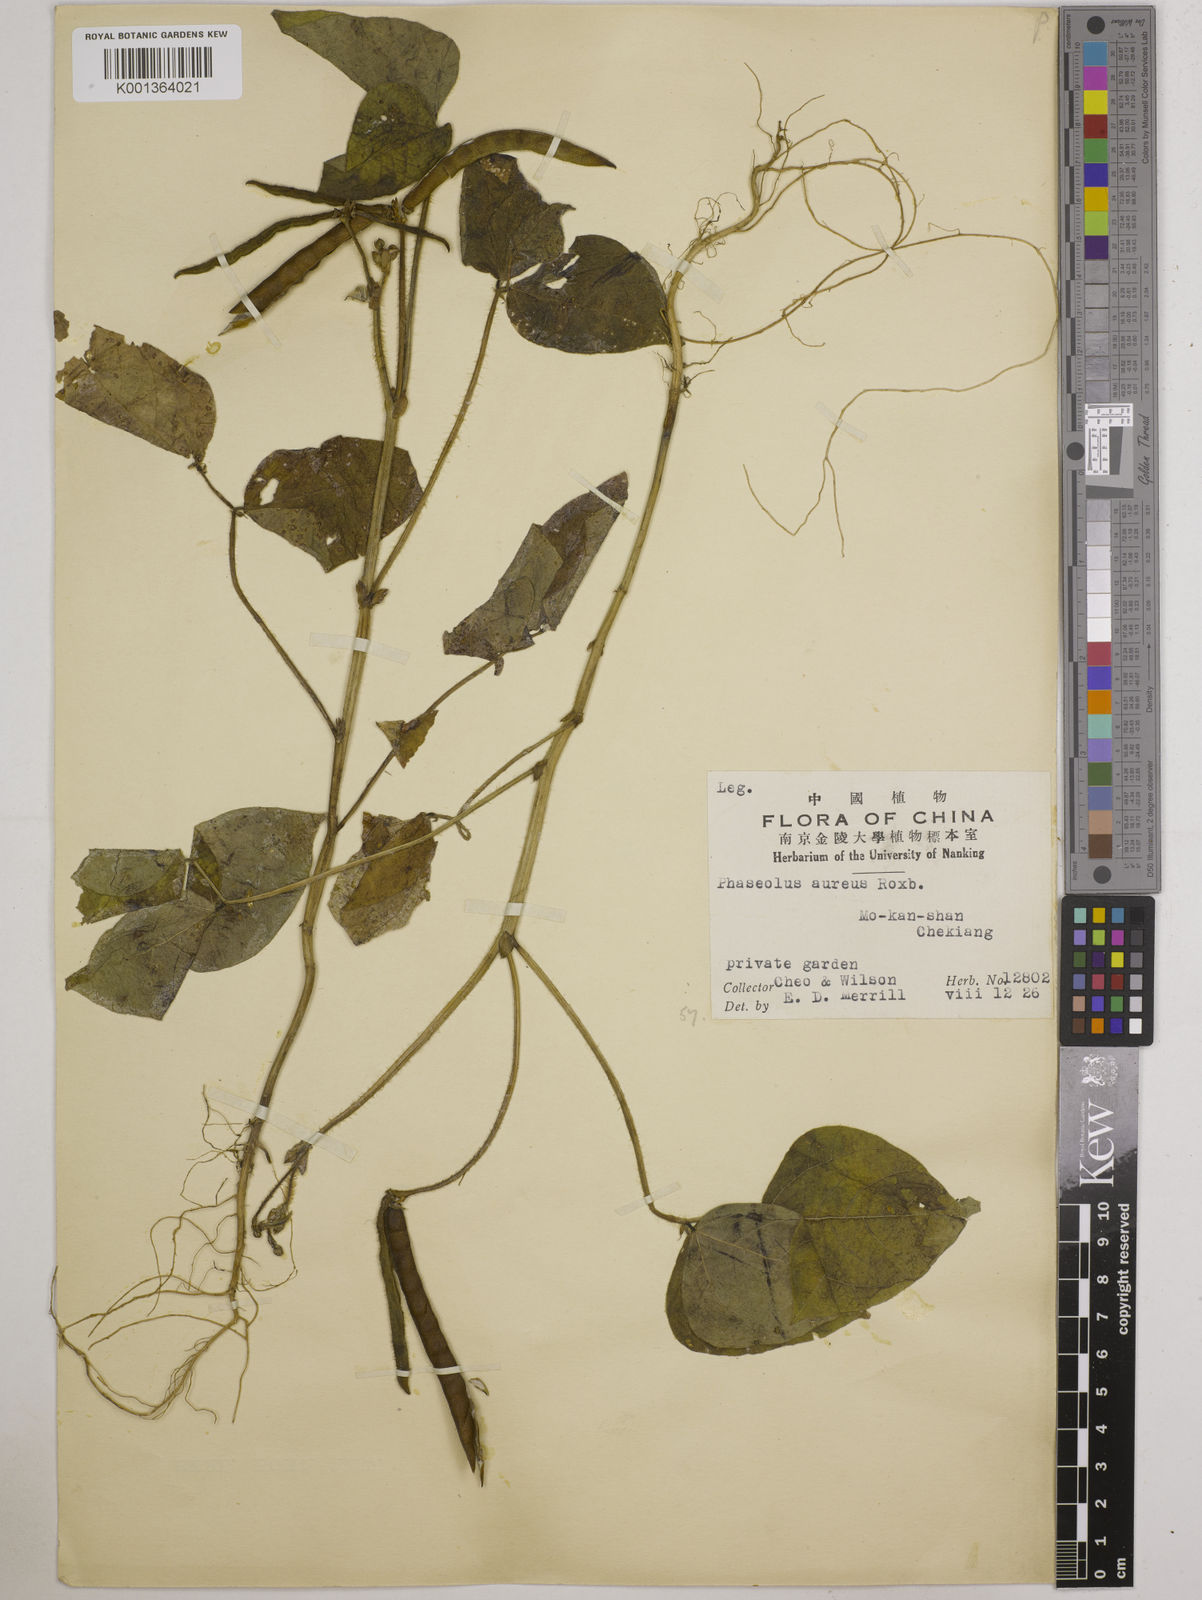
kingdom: Plantae
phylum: Tracheophyta
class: Magnoliopsida
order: Fabales
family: Fabaceae
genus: Vigna
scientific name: Vigna radiata
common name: Mung-bean
